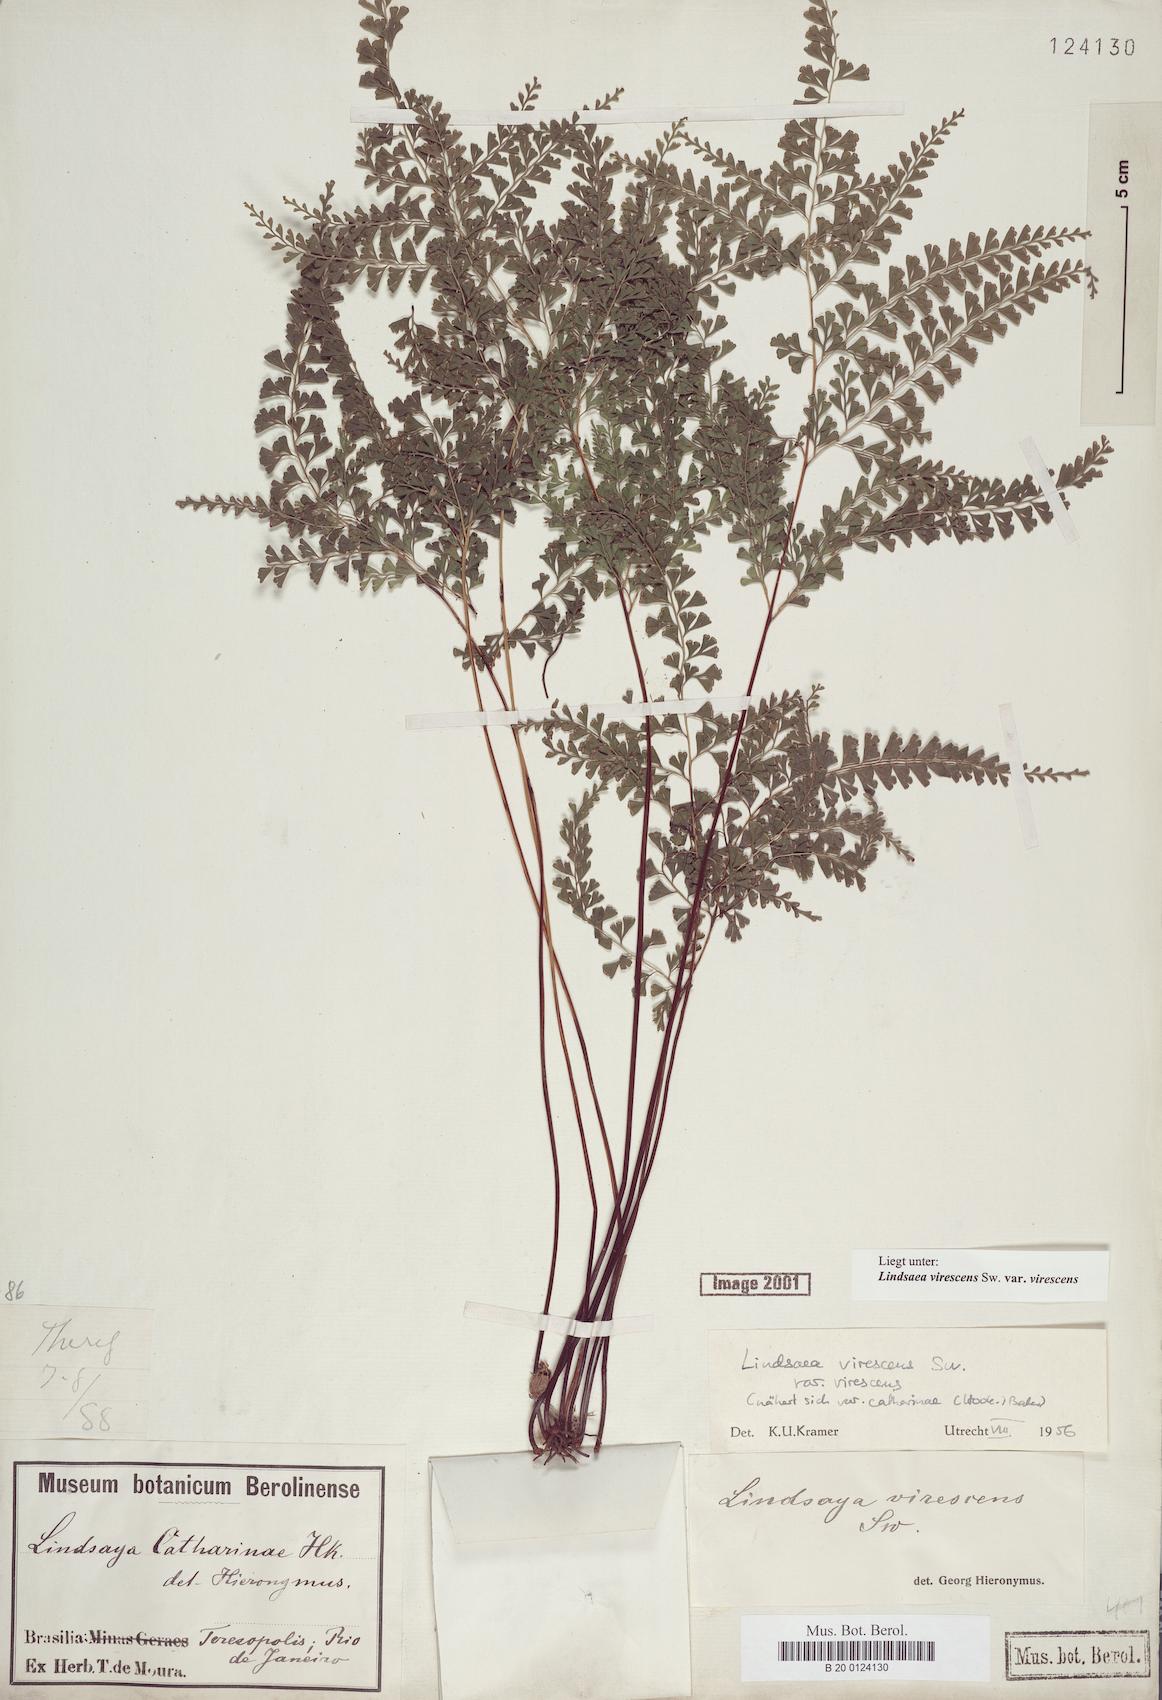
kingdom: Plantae
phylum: Tracheophyta
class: Polypodiopsida
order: Polypodiales
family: Lindsaeaceae
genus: Lindsaea
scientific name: Lindsaea virescens
